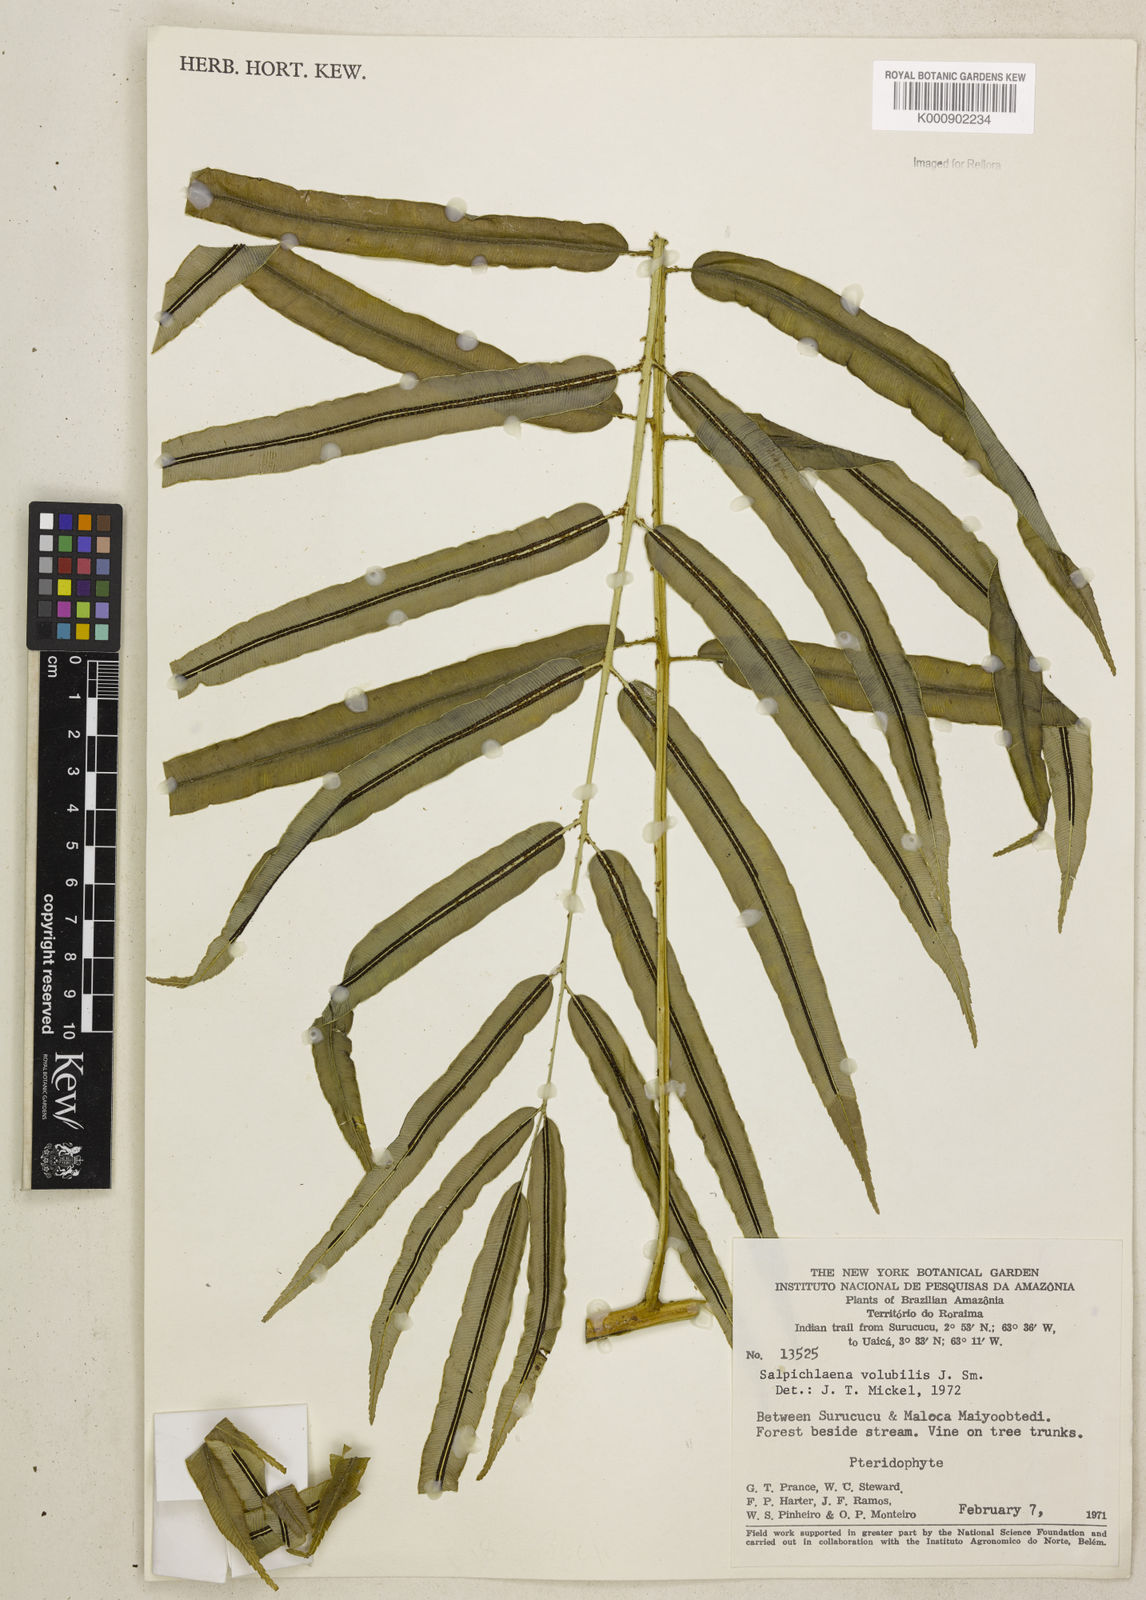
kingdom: Plantae
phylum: Tracheophyta
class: Polypodiopsida
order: Polypodiales
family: Blechnaceae
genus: Salpichlaena
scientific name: Salpichlaena volubilis
